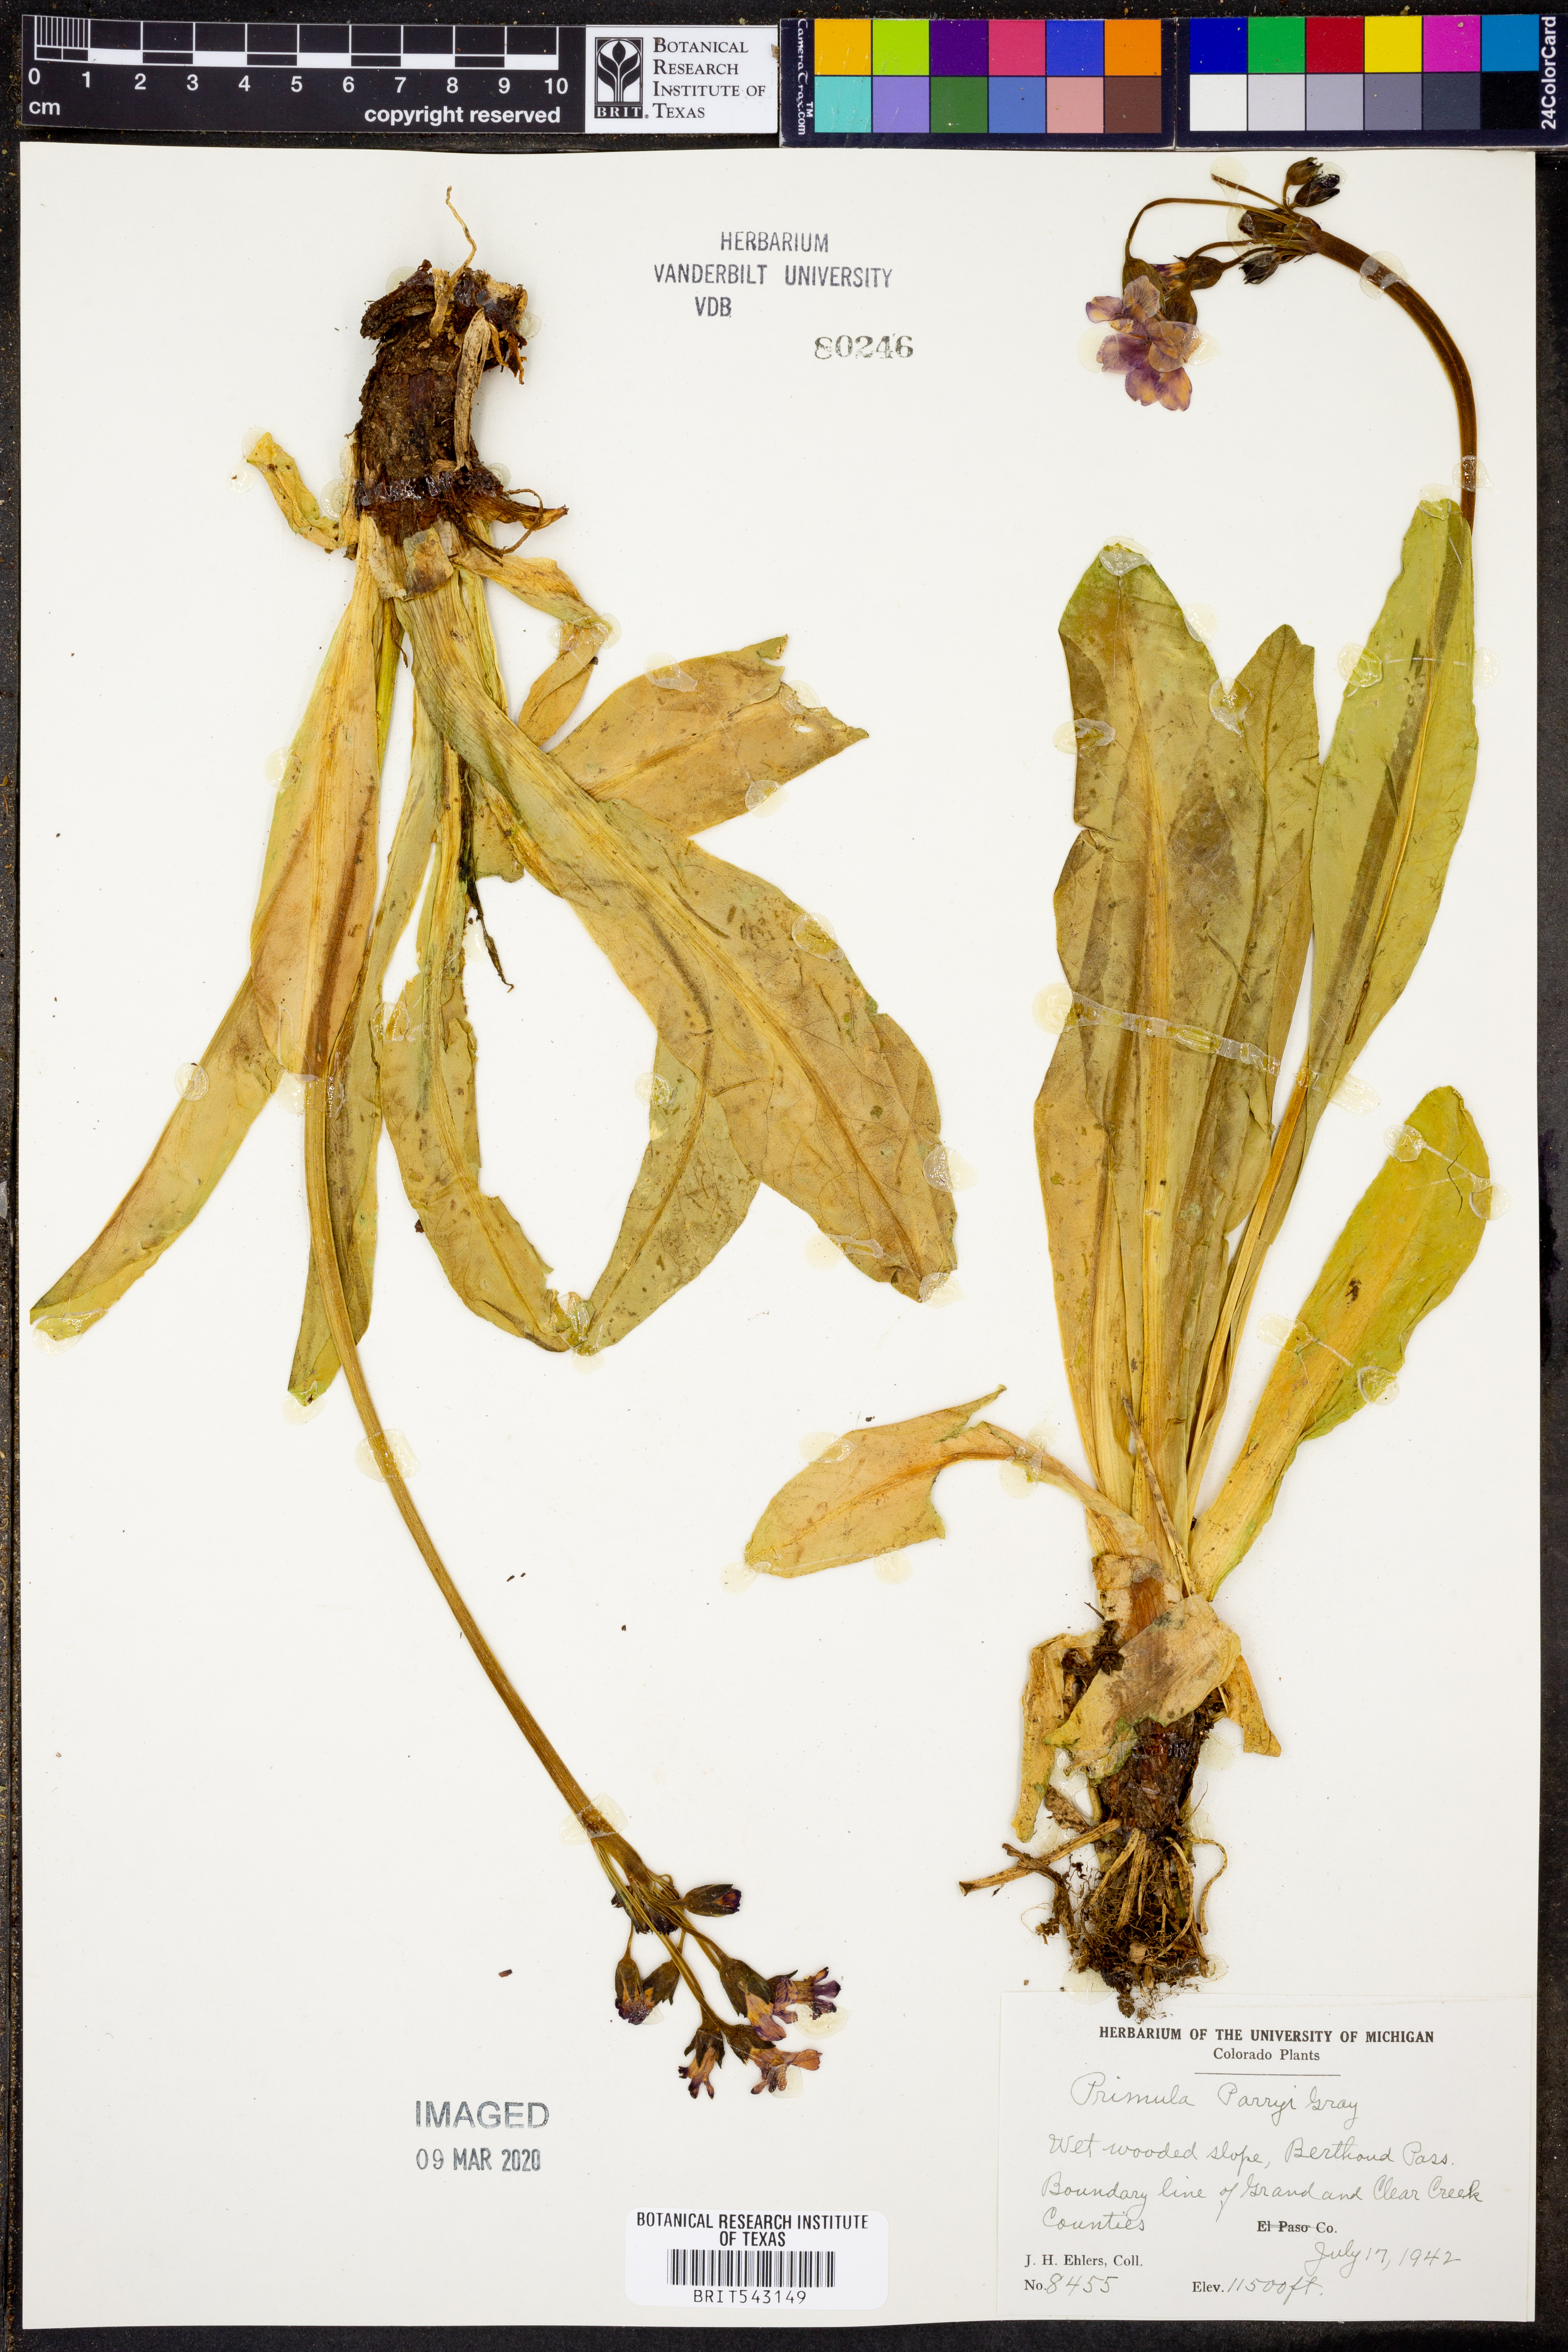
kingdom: Plantae
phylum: Tracheophyta
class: Magnoliopsida
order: Ericales
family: Primulaceae
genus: Primula
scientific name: Primula parryi
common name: Parry's primrose
